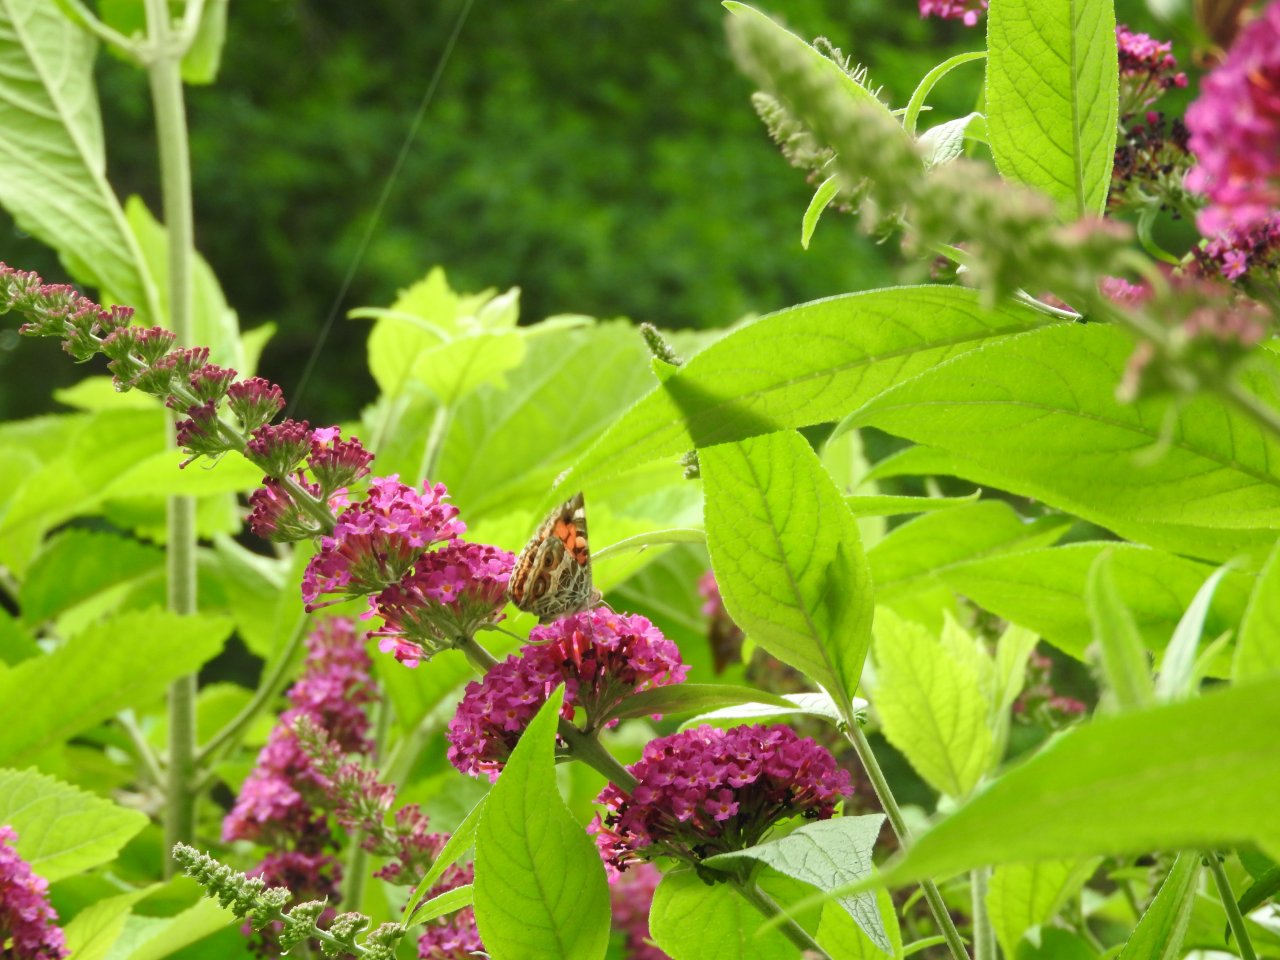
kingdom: Animalia
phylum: Arthropoda
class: Insecta
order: Lepidoptera
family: Nymphalidae
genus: Vanessa
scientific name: Vanessa virginiensis
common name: American Lady
